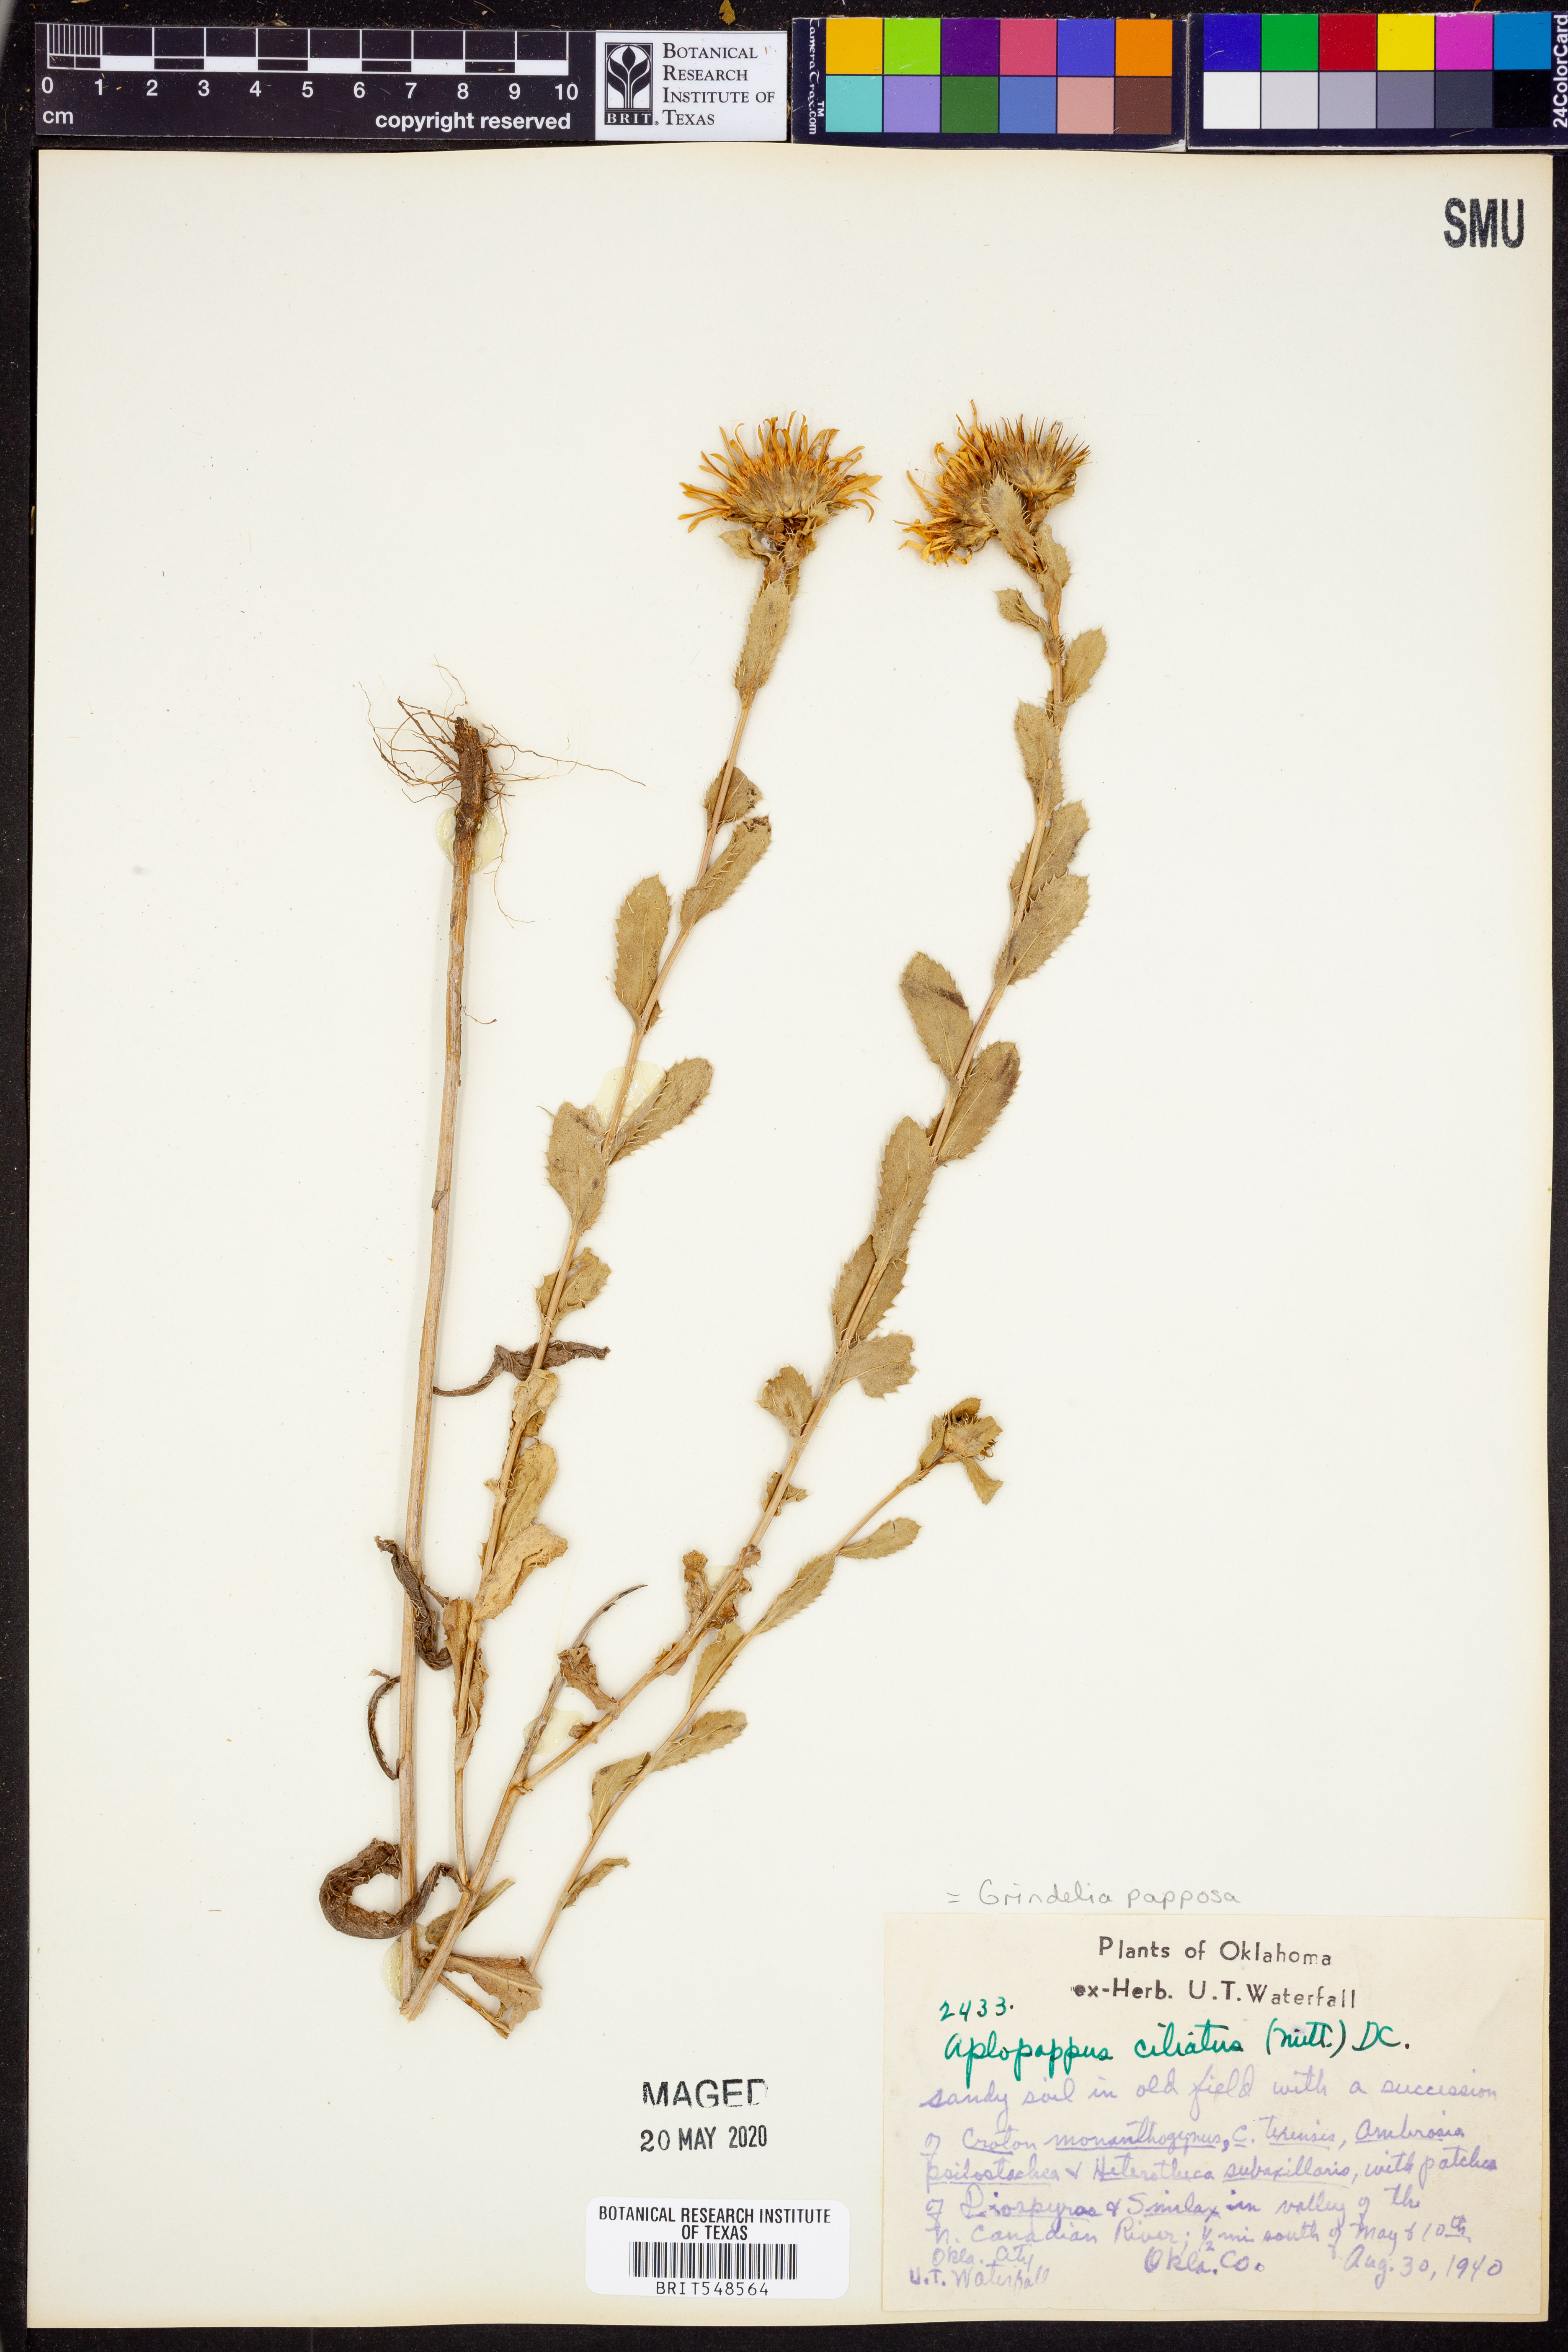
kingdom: Plantae
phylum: Tracheophyta
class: Magnoliopsida
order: Asterales
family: Asteraceae
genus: Grindelia
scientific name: Grindelia ciliata
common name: Goldenweed
